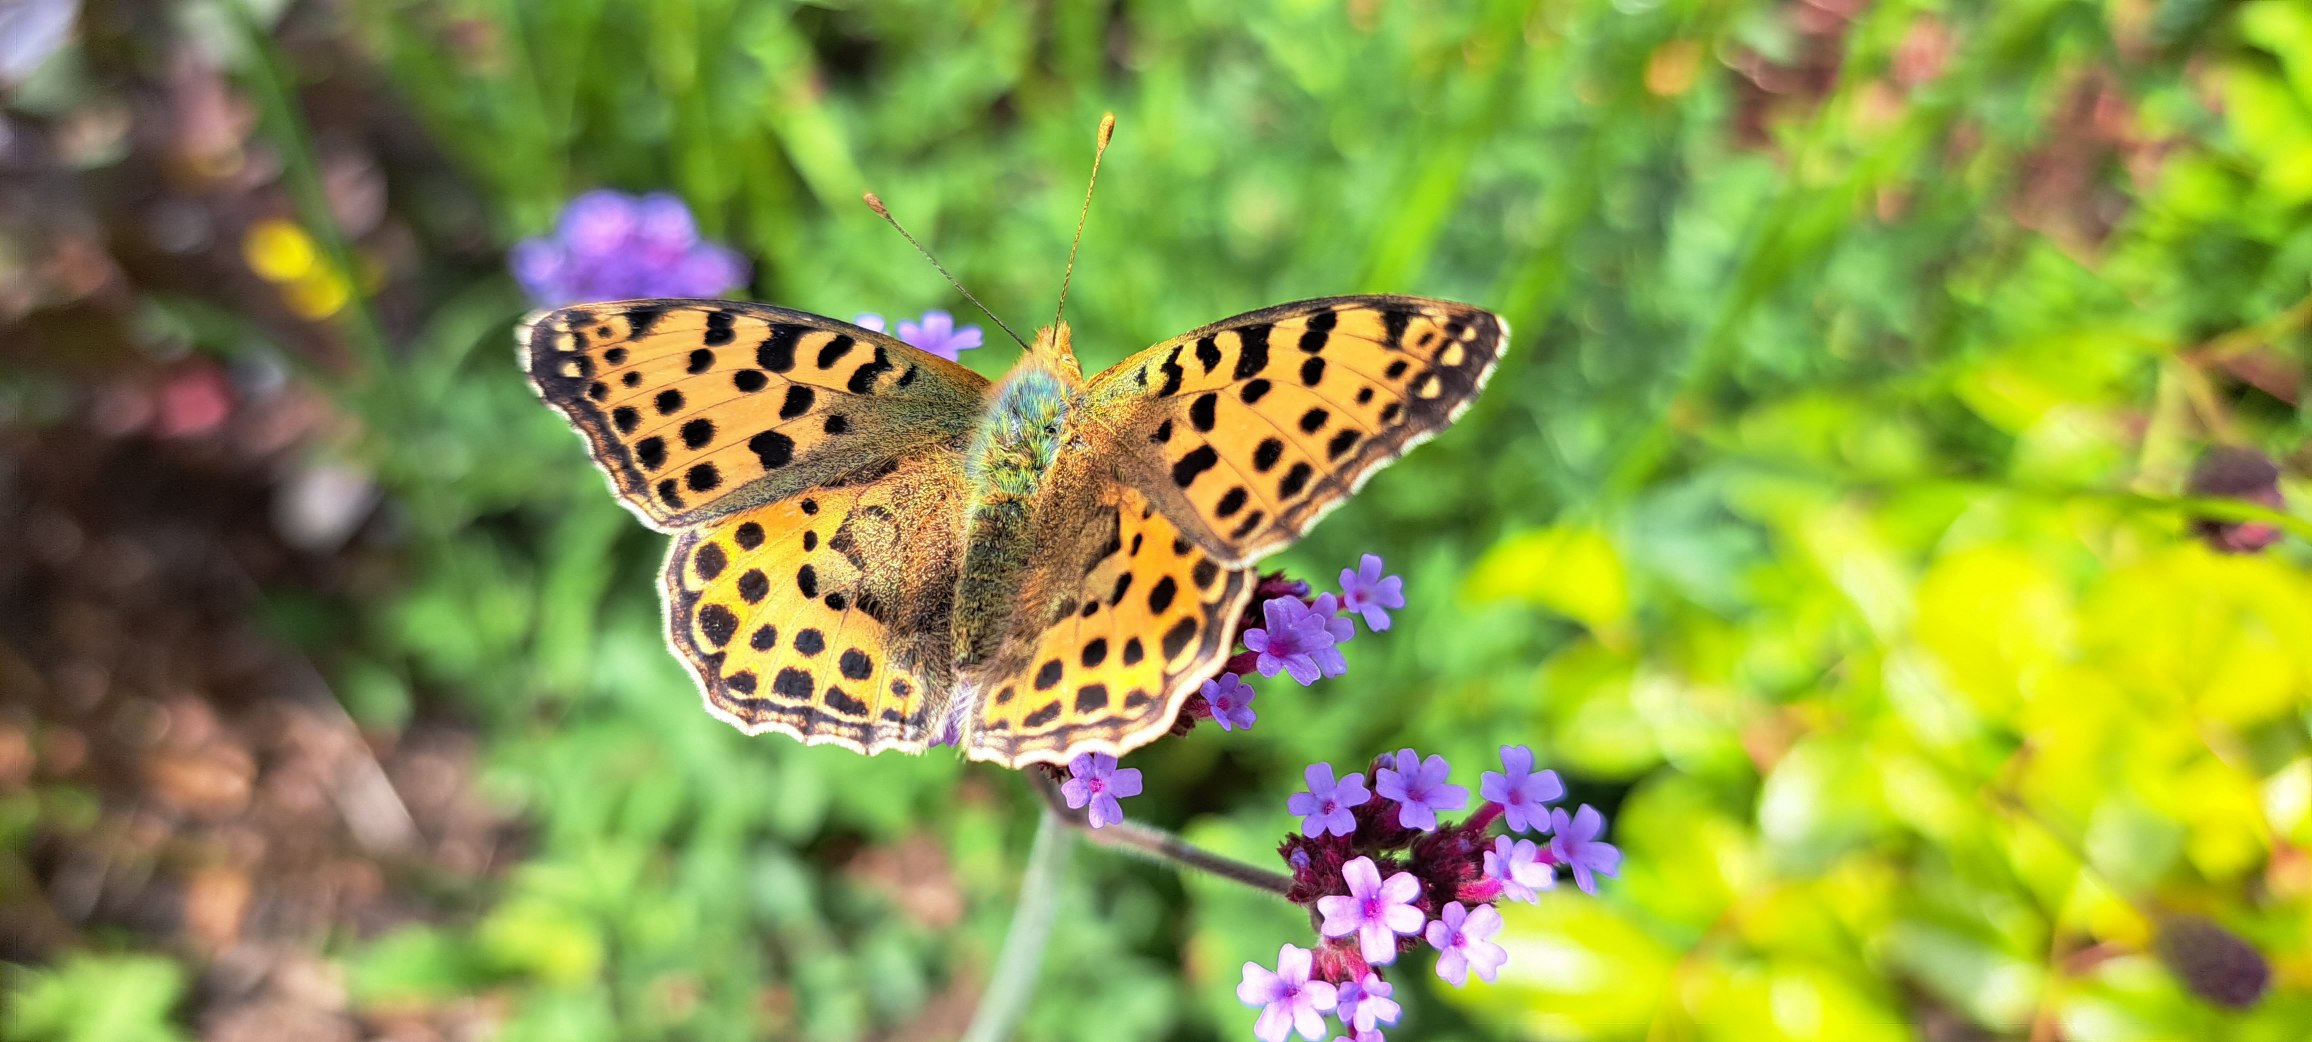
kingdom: Animalia
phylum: Arthropoda
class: Insecta
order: Lepidoptera
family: Nymphalidae
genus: Issoria
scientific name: Issoria lathonia
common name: Storplettet perlemorsommerfugl
